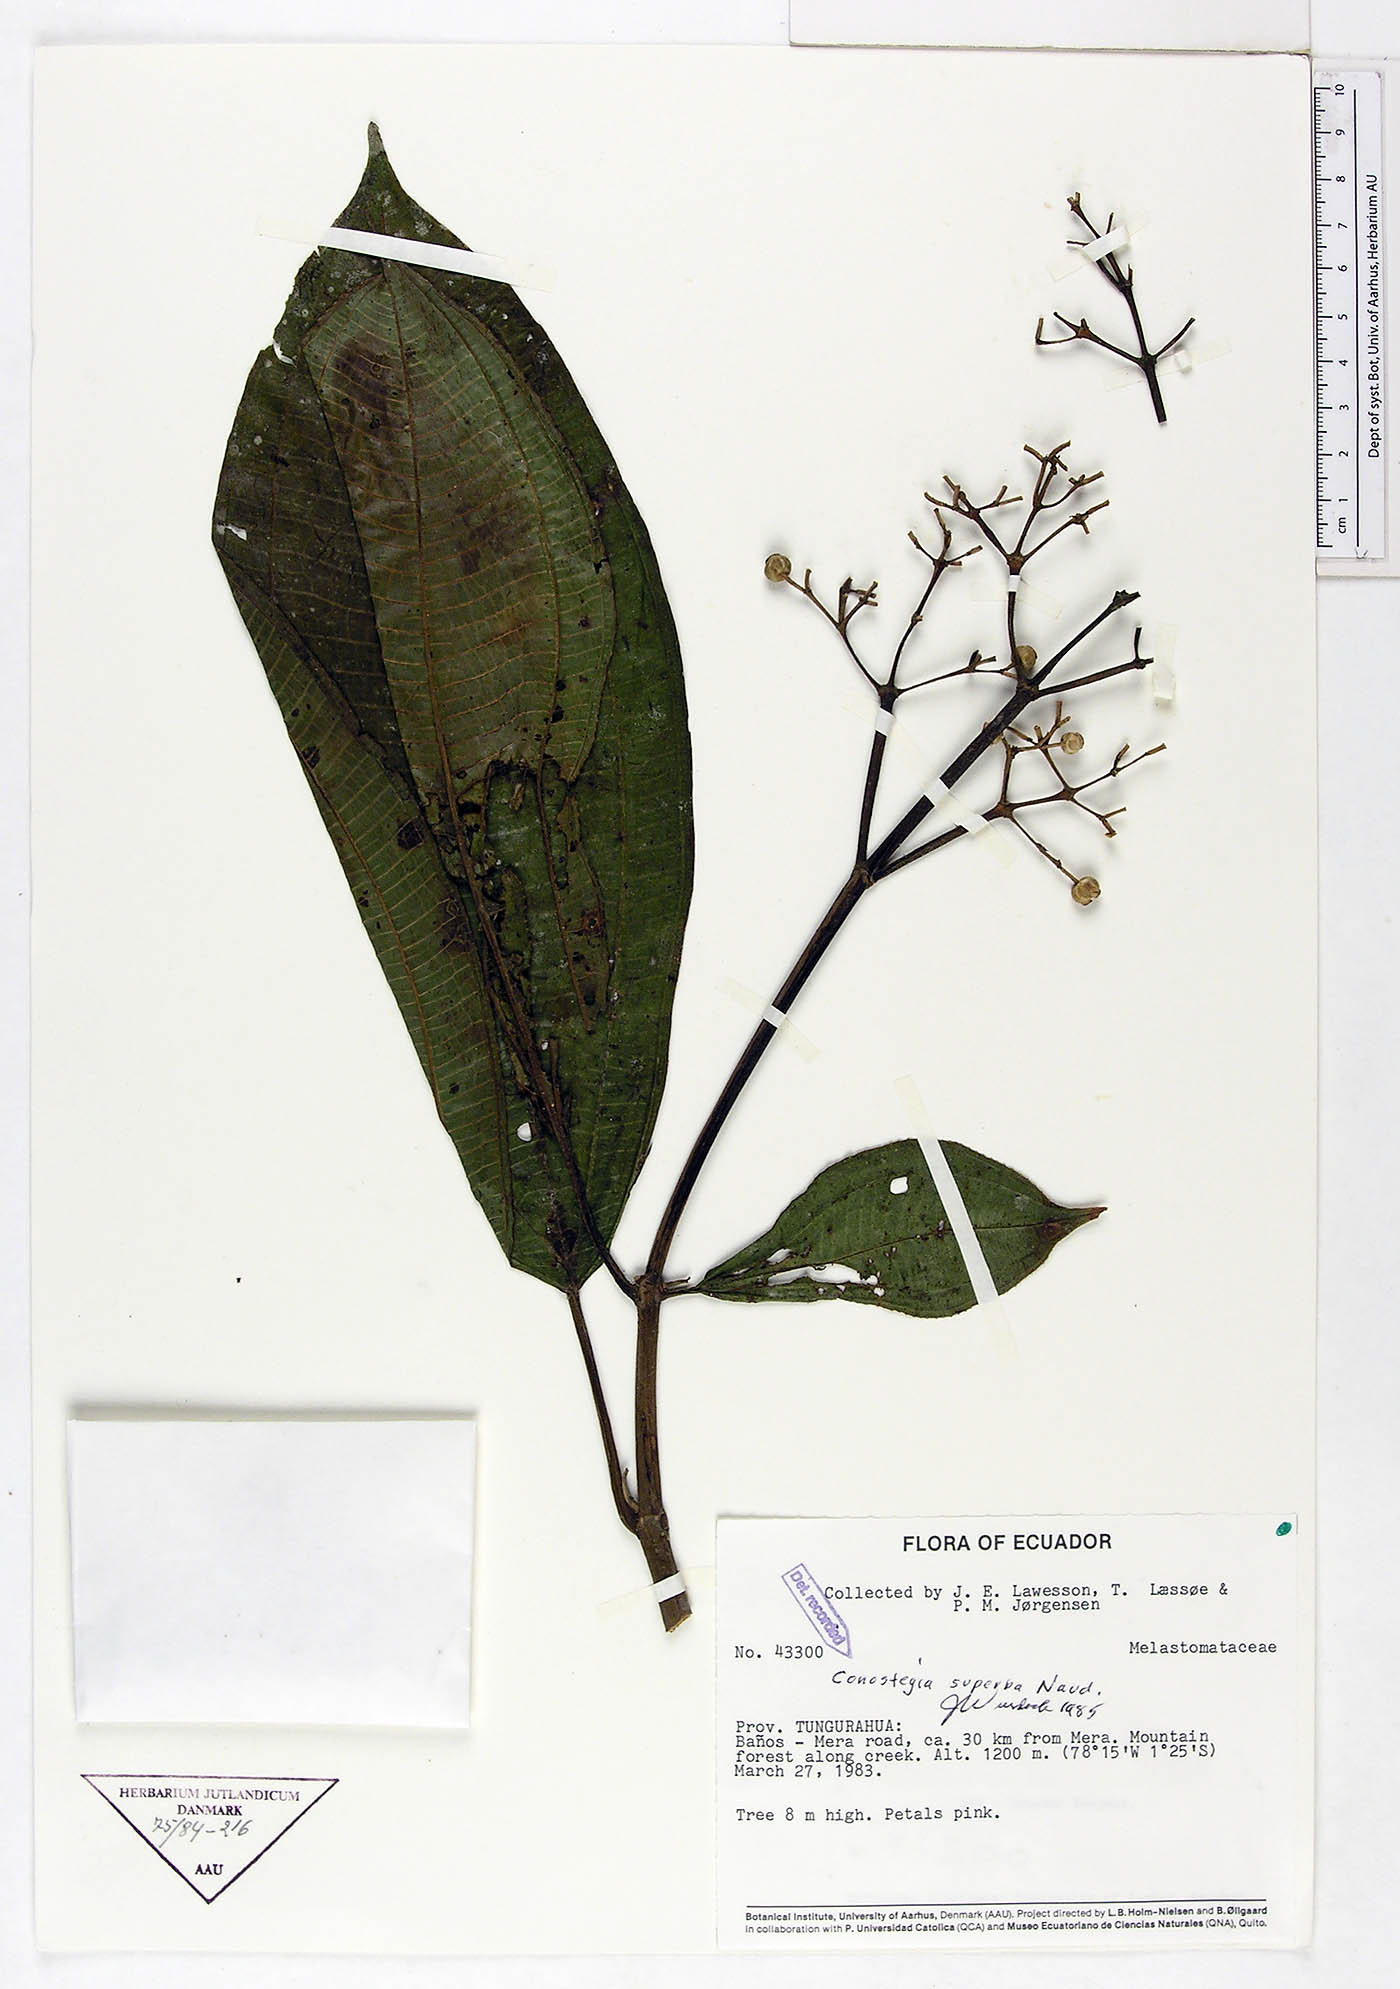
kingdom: Plantae
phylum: Tracheophyta
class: Magnoliopsida
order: Myrtales
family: Melastomataceae
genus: Miconia
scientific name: Miconia baillonii
